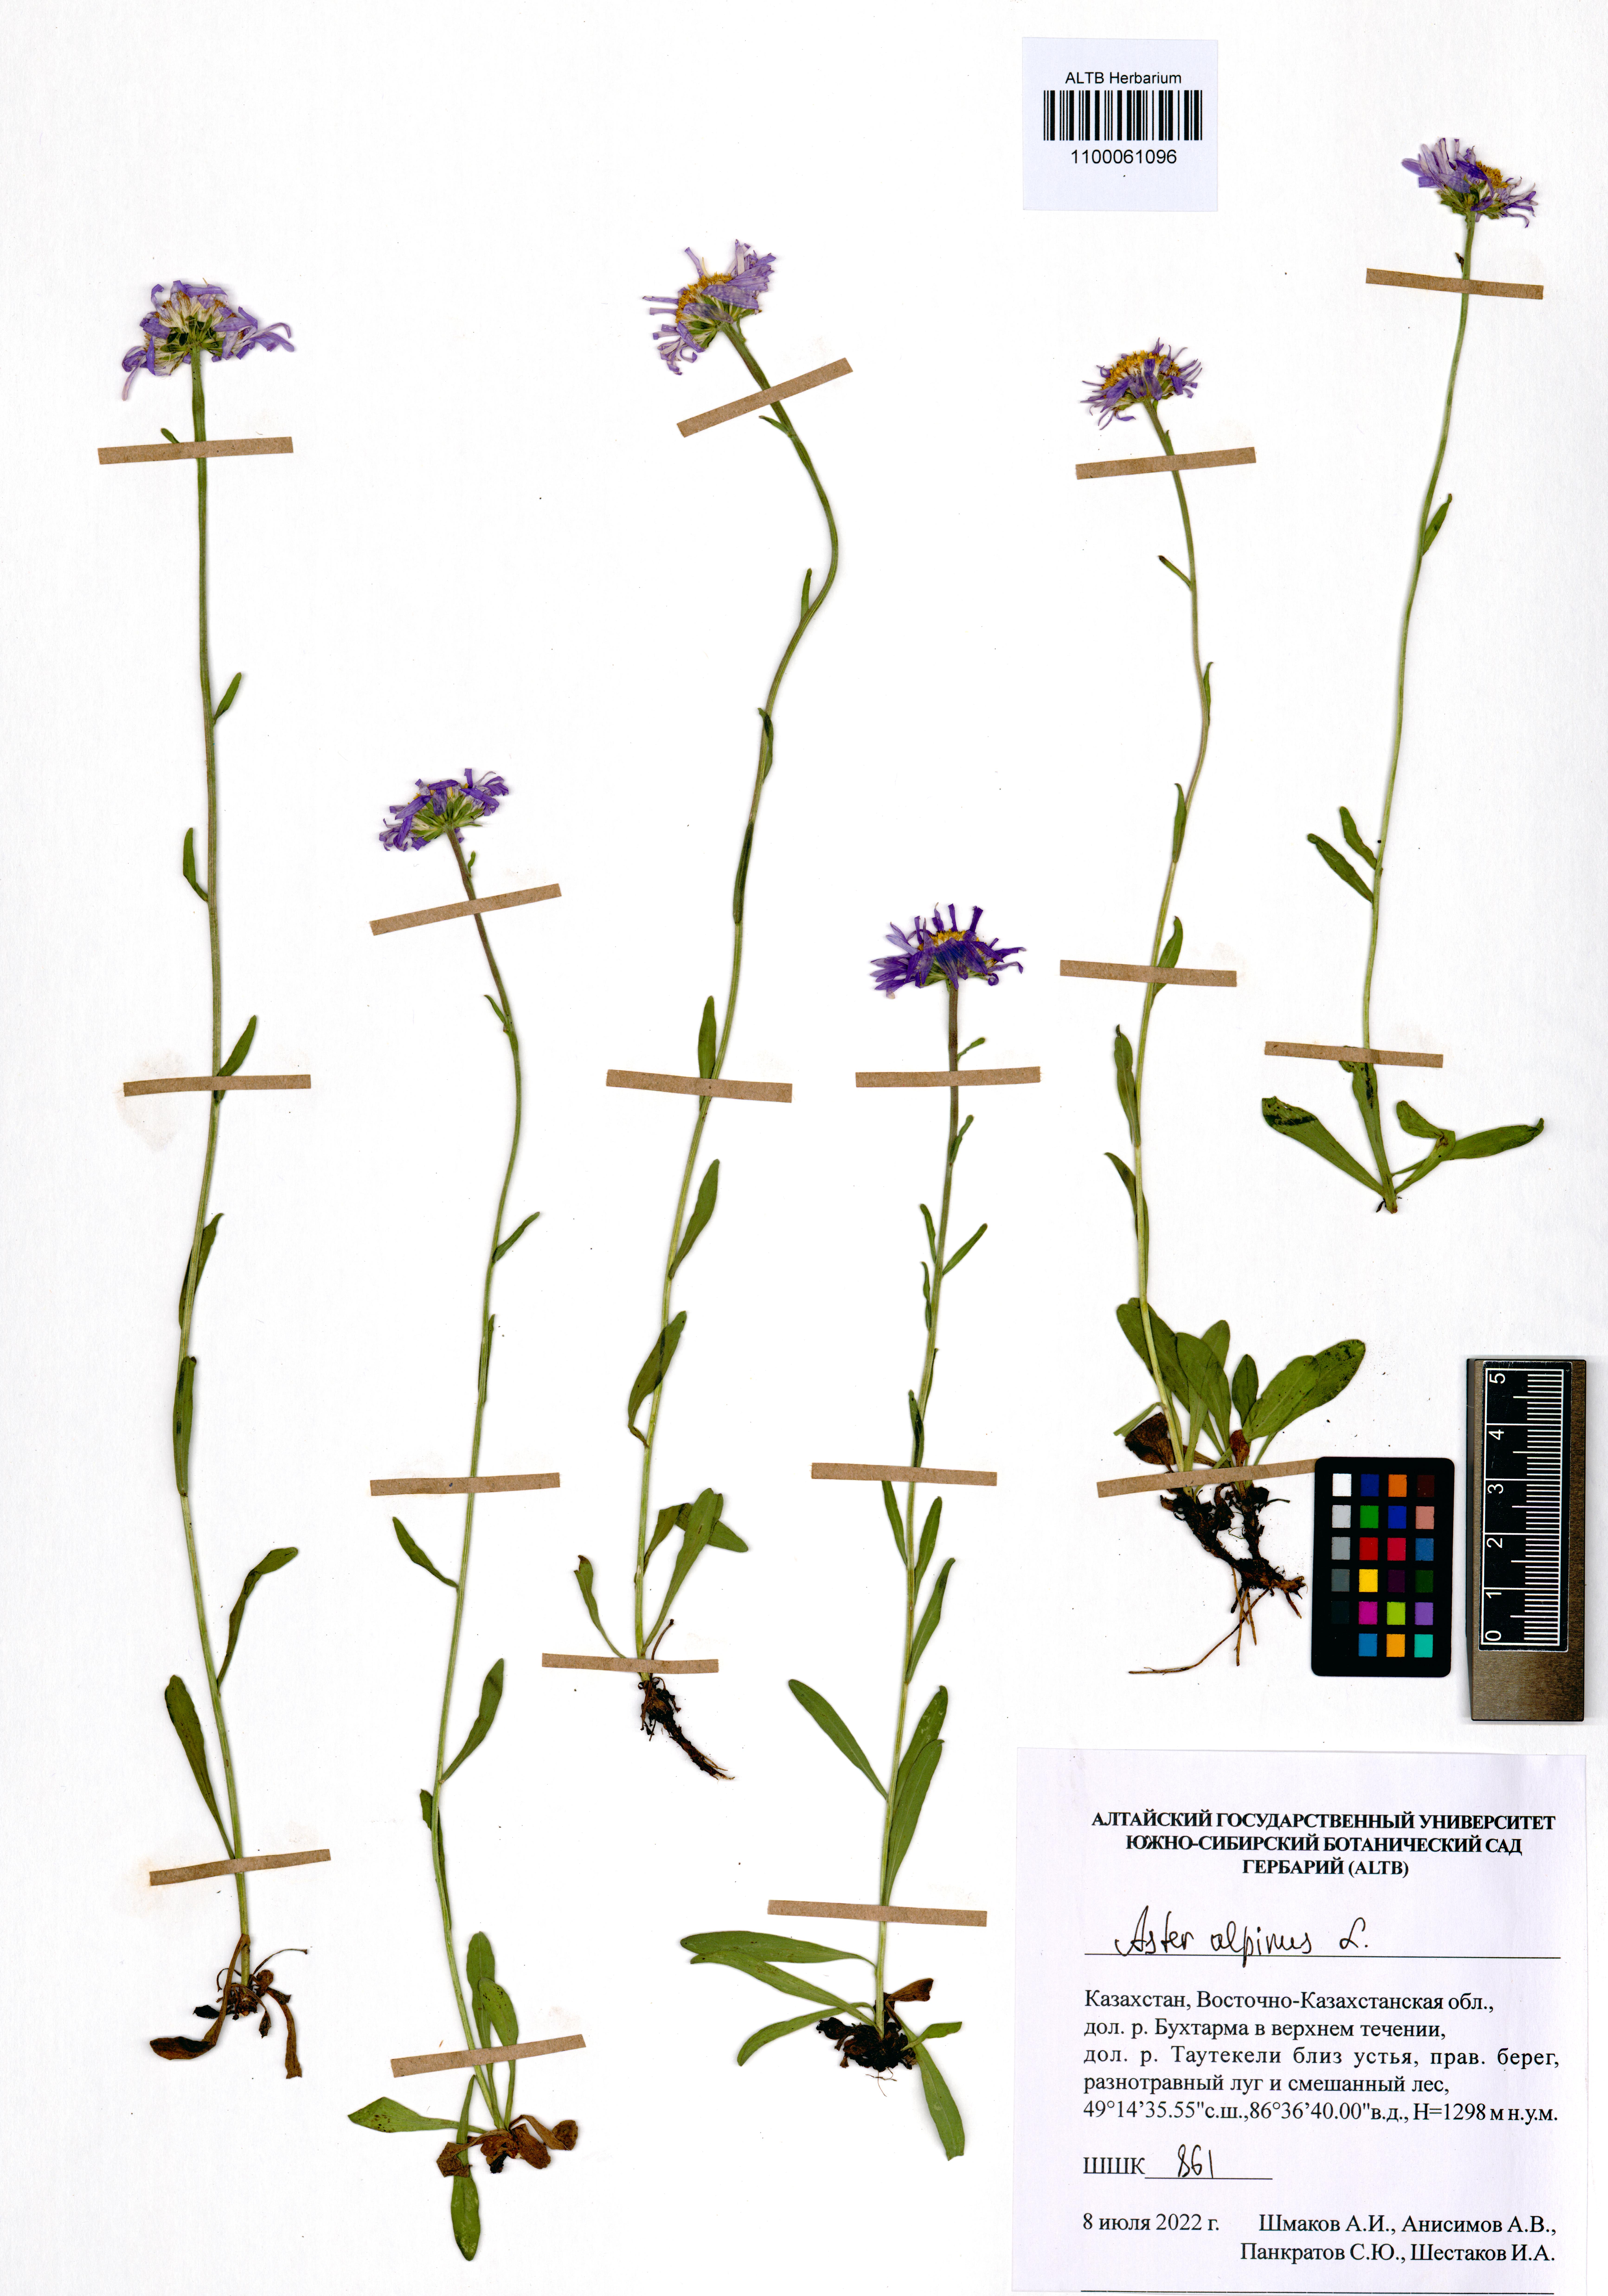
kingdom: Plantae
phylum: Tracheophyta
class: Magnoliopsida
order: Asterales
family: Asteraceae
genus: Aster
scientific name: Aster alpinus
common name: Alpine aster
